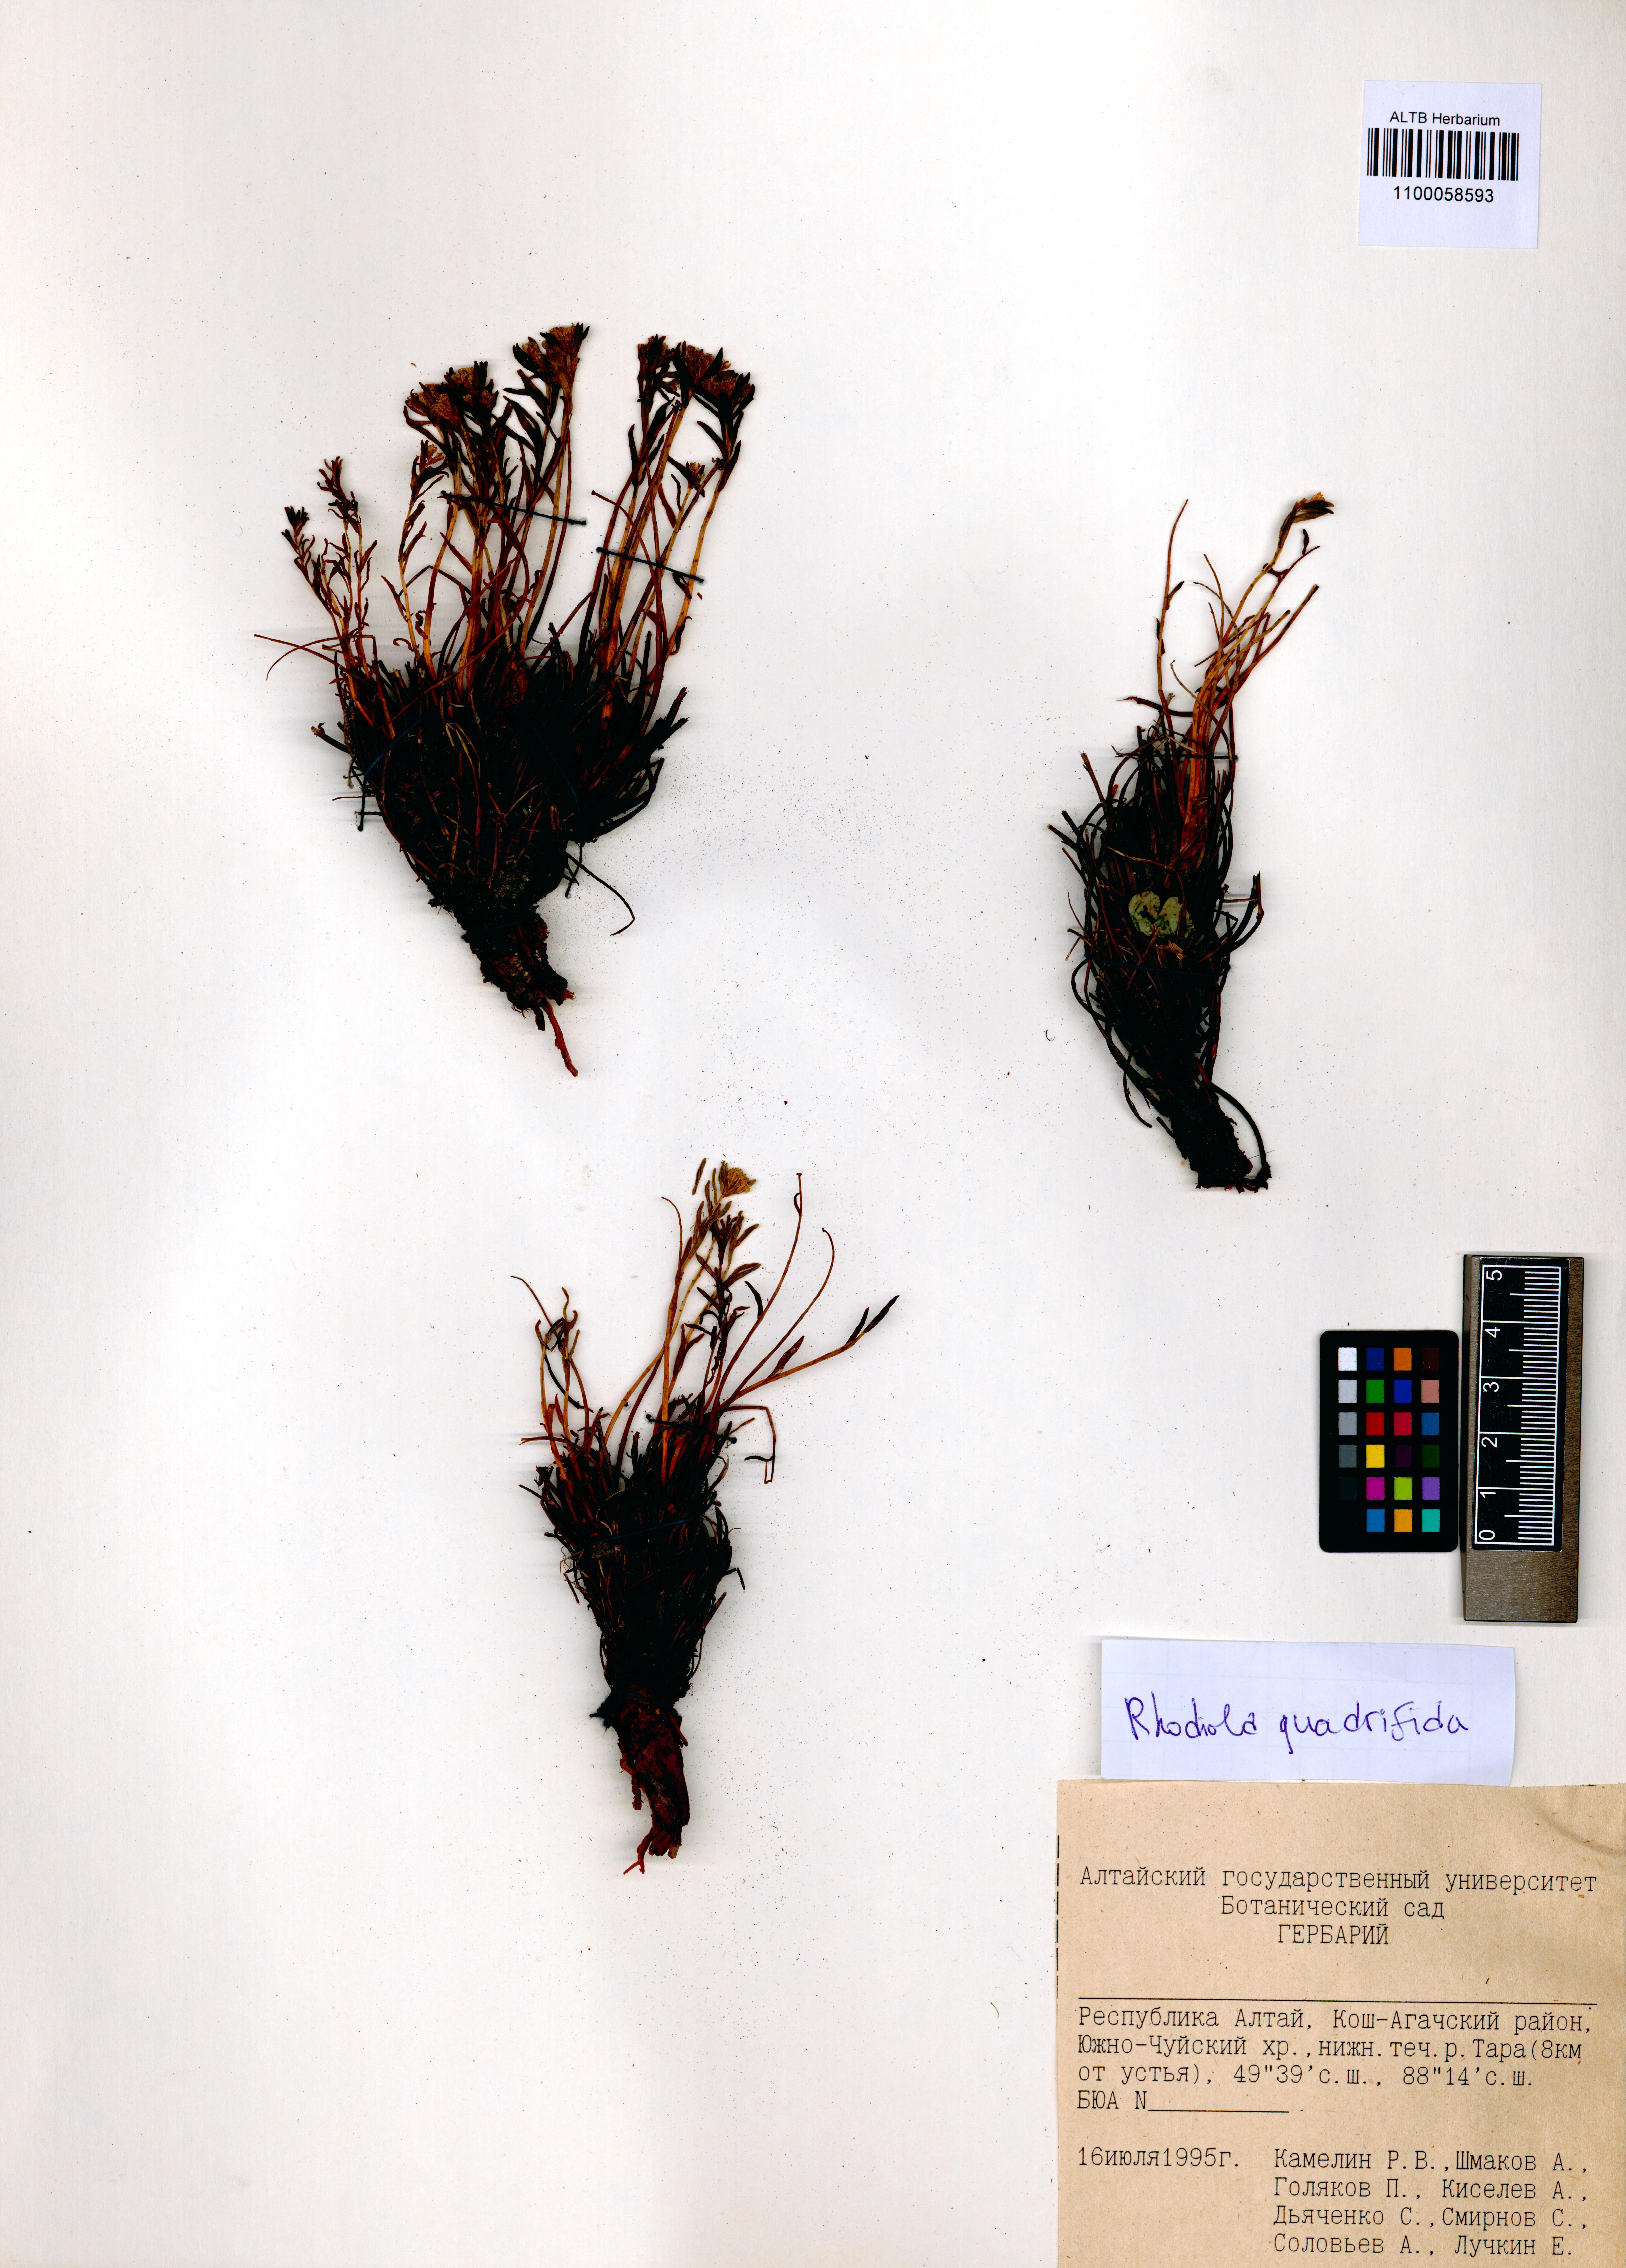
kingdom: Plantae
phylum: Tracheophyta
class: Magnoliopsida
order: Saxifragales
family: Crassulaceae
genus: Rhodiola
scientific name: Rhodiola quadrifida
